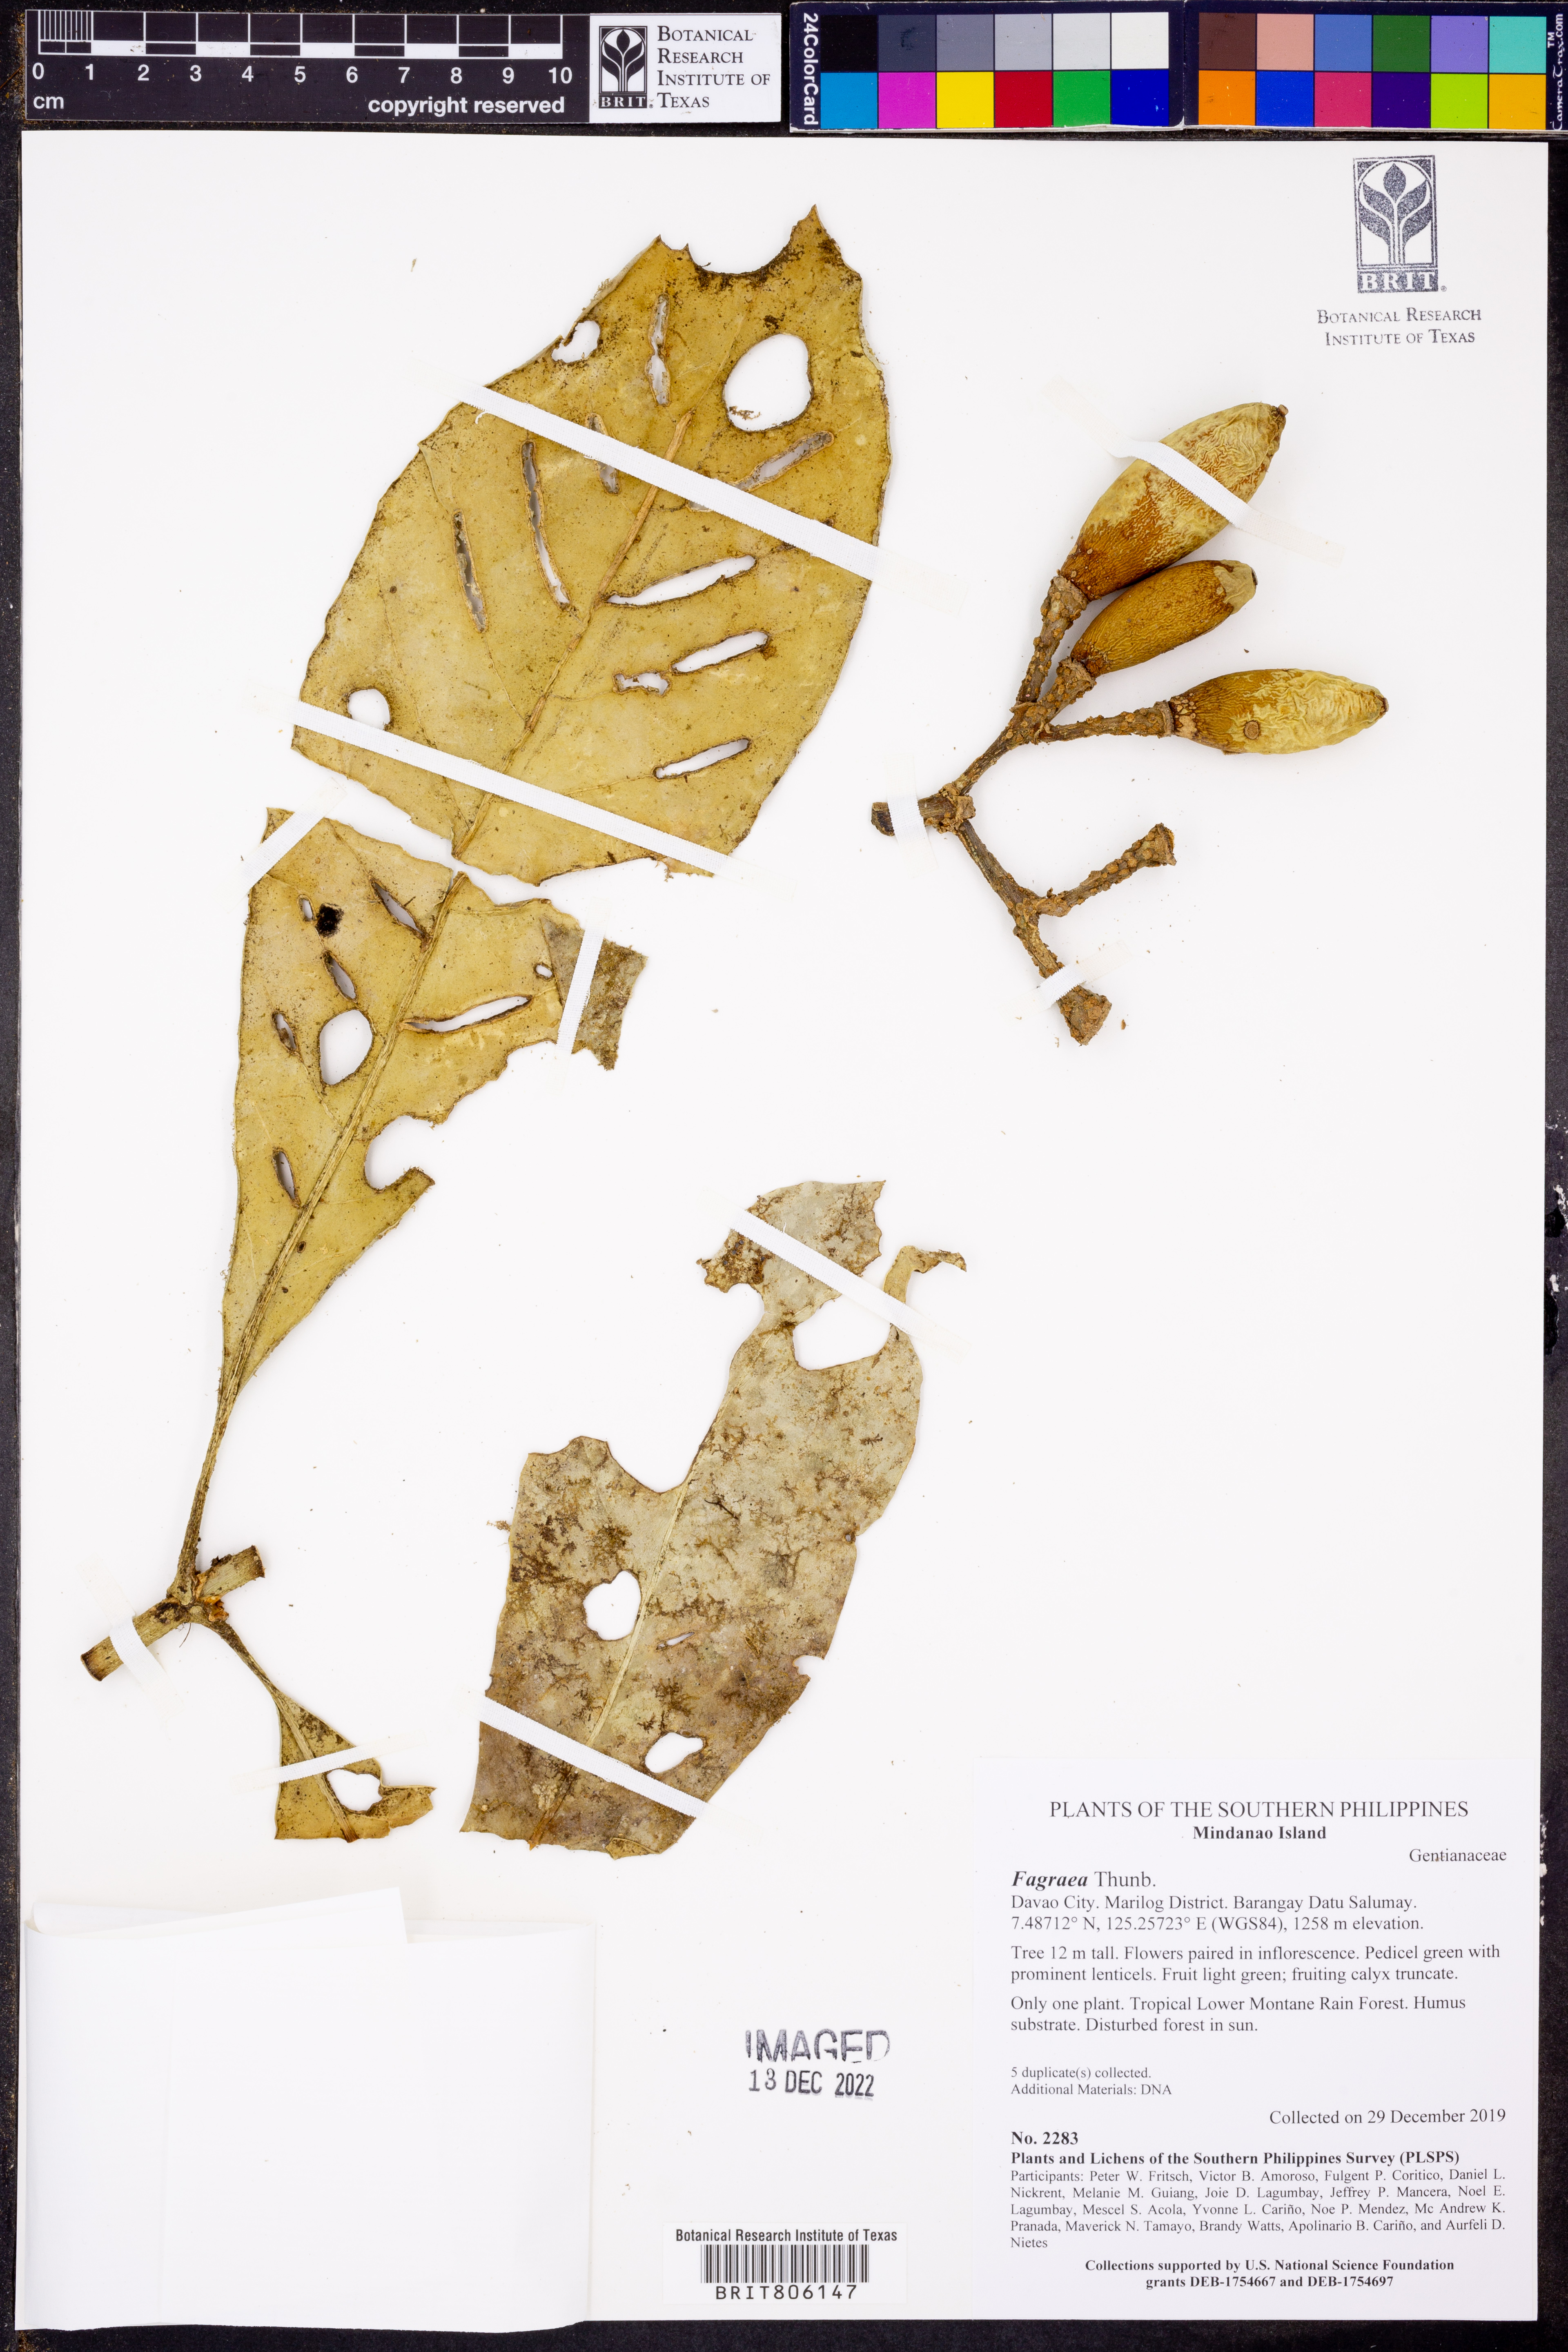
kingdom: Plantae
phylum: Tracheophyta
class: Magnoliopsida
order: Gentianales
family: Gentianaceae
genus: Fagraea
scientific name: Fagraea
